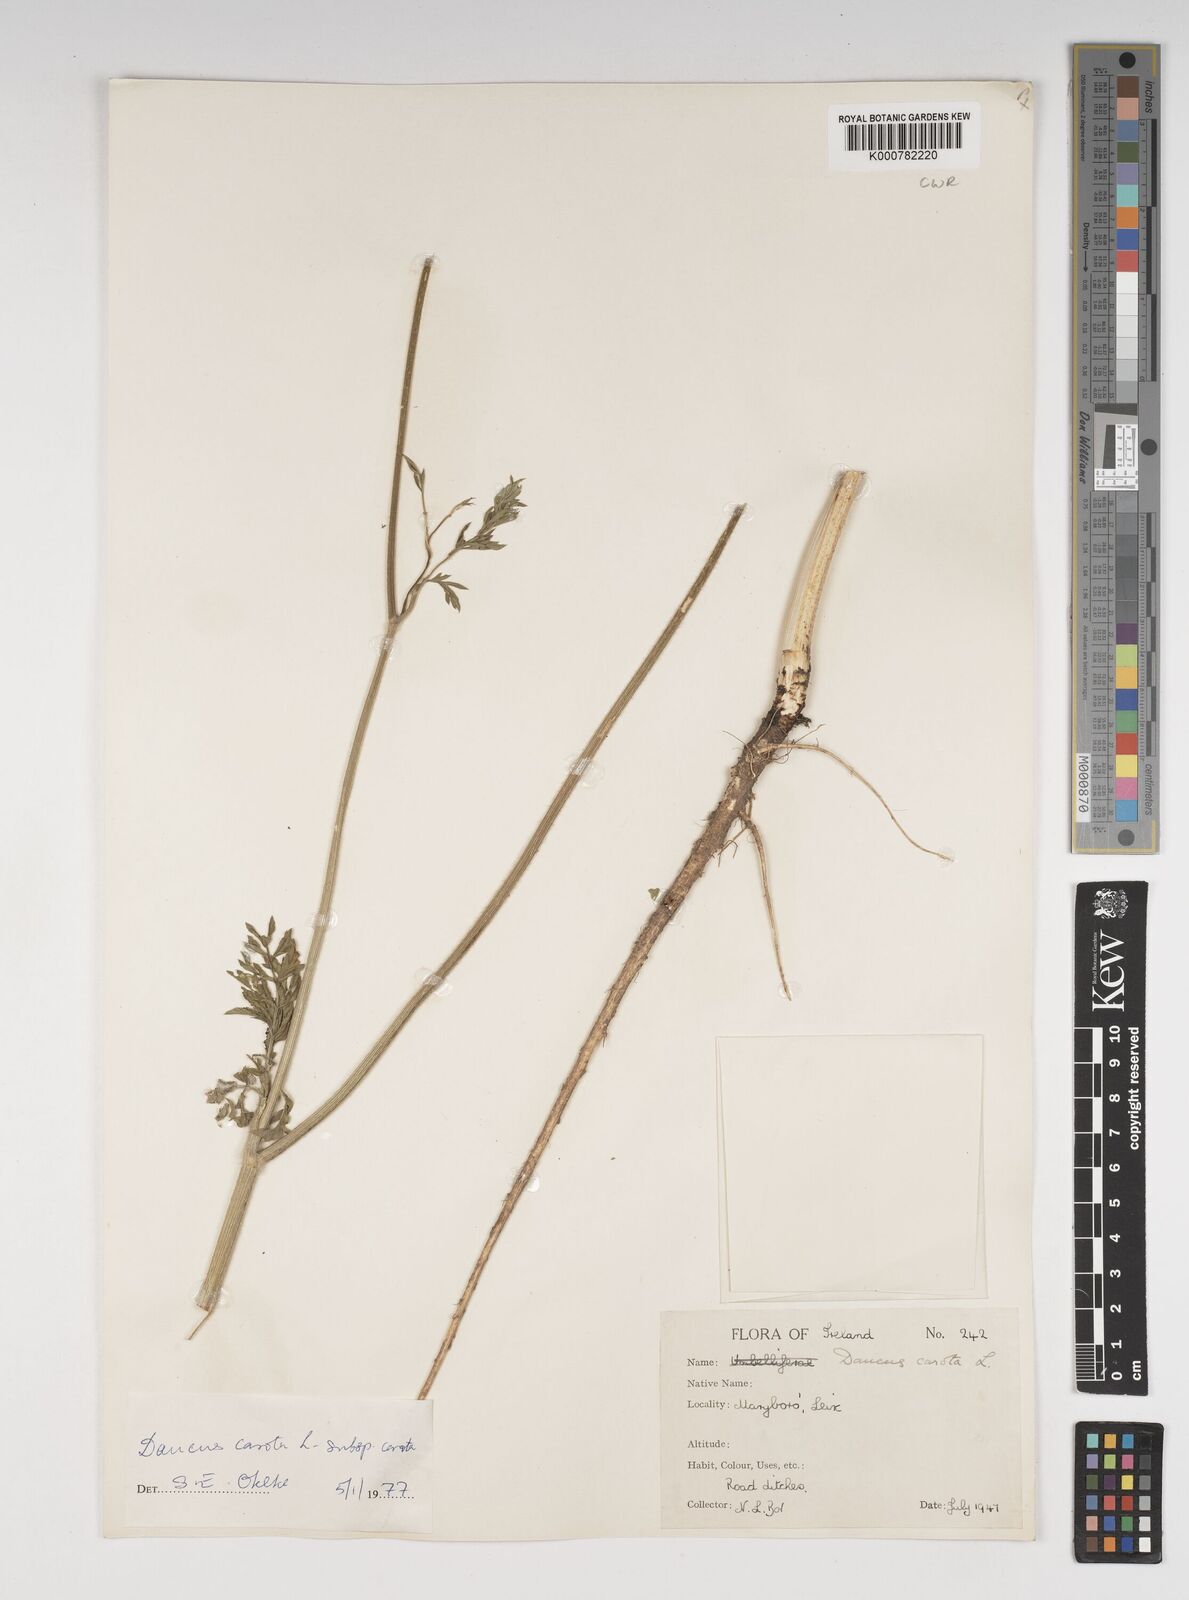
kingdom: Plantae
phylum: Tracheophyta
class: Magnoliopsida
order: Apiales
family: Apiaceae
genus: Daucus
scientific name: Daucus carota
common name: Wild carrot
